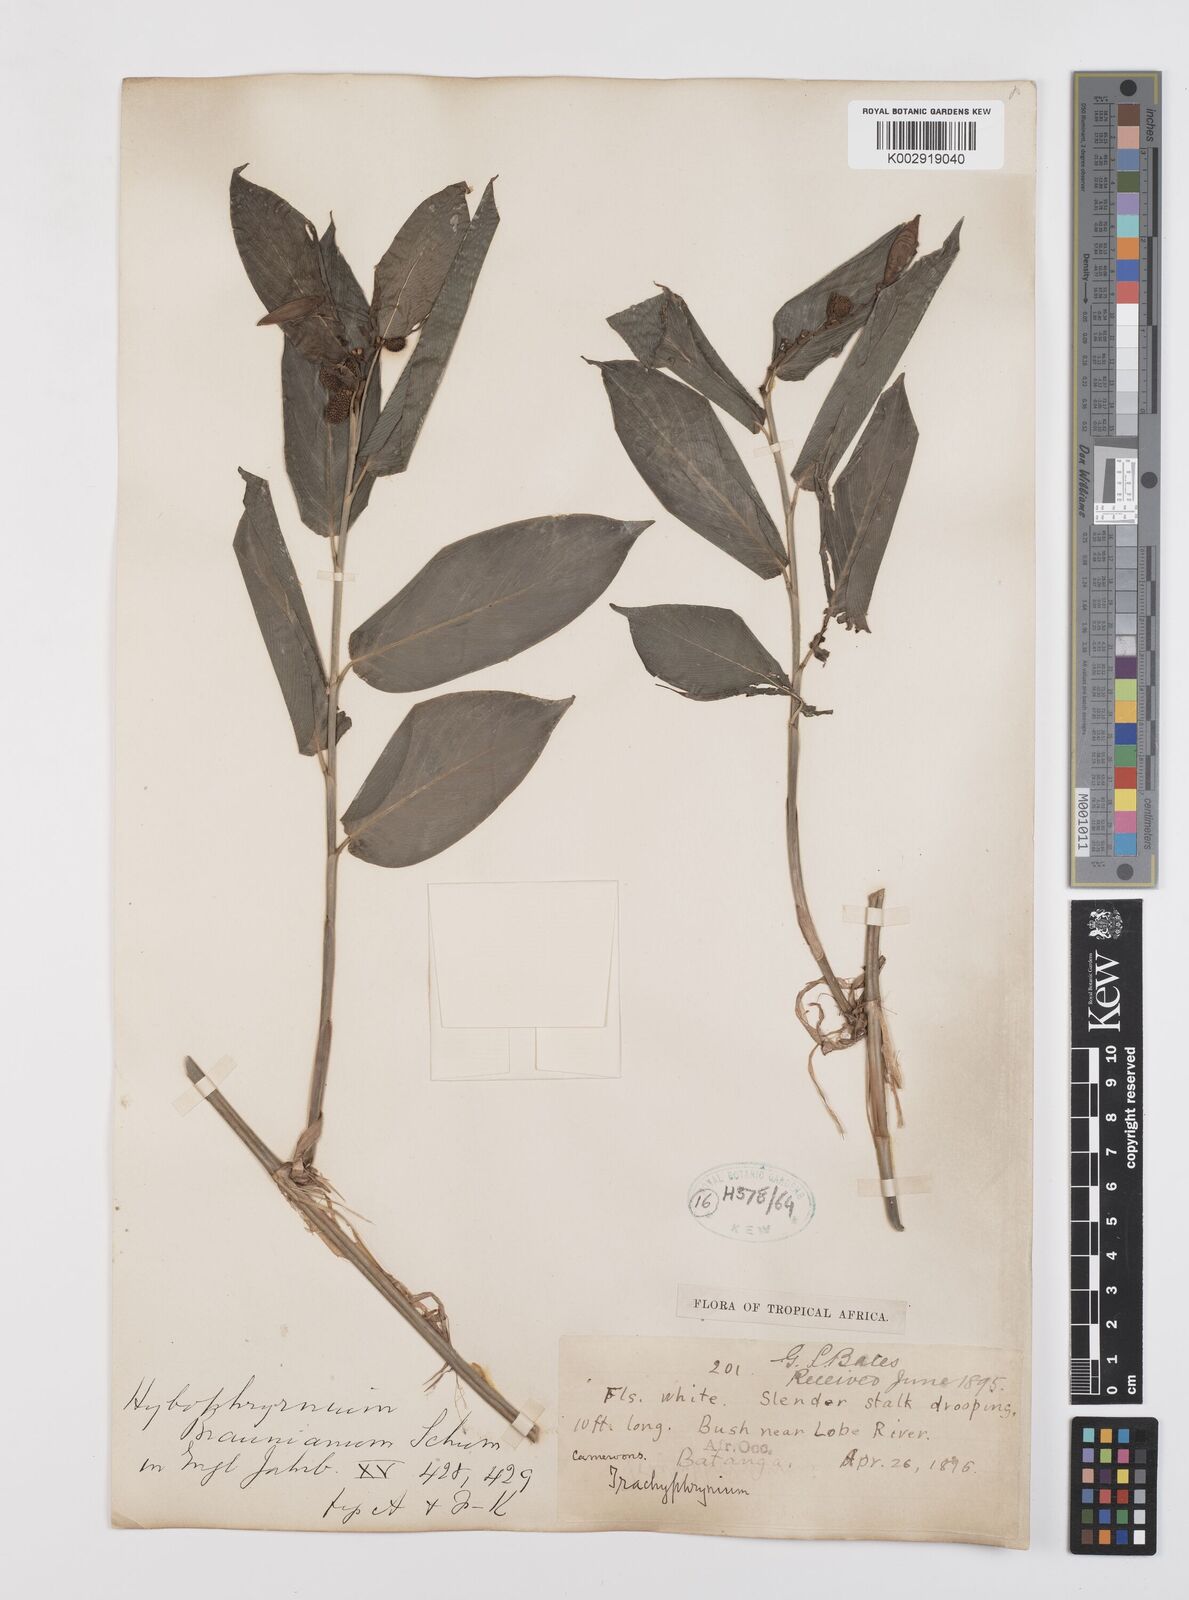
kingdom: Plantae
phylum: Tracheophyta
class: Liliopsida
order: Zingiberales
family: Marantaceae
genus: Trachyphrynium
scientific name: Trachyphrynium braunianum
